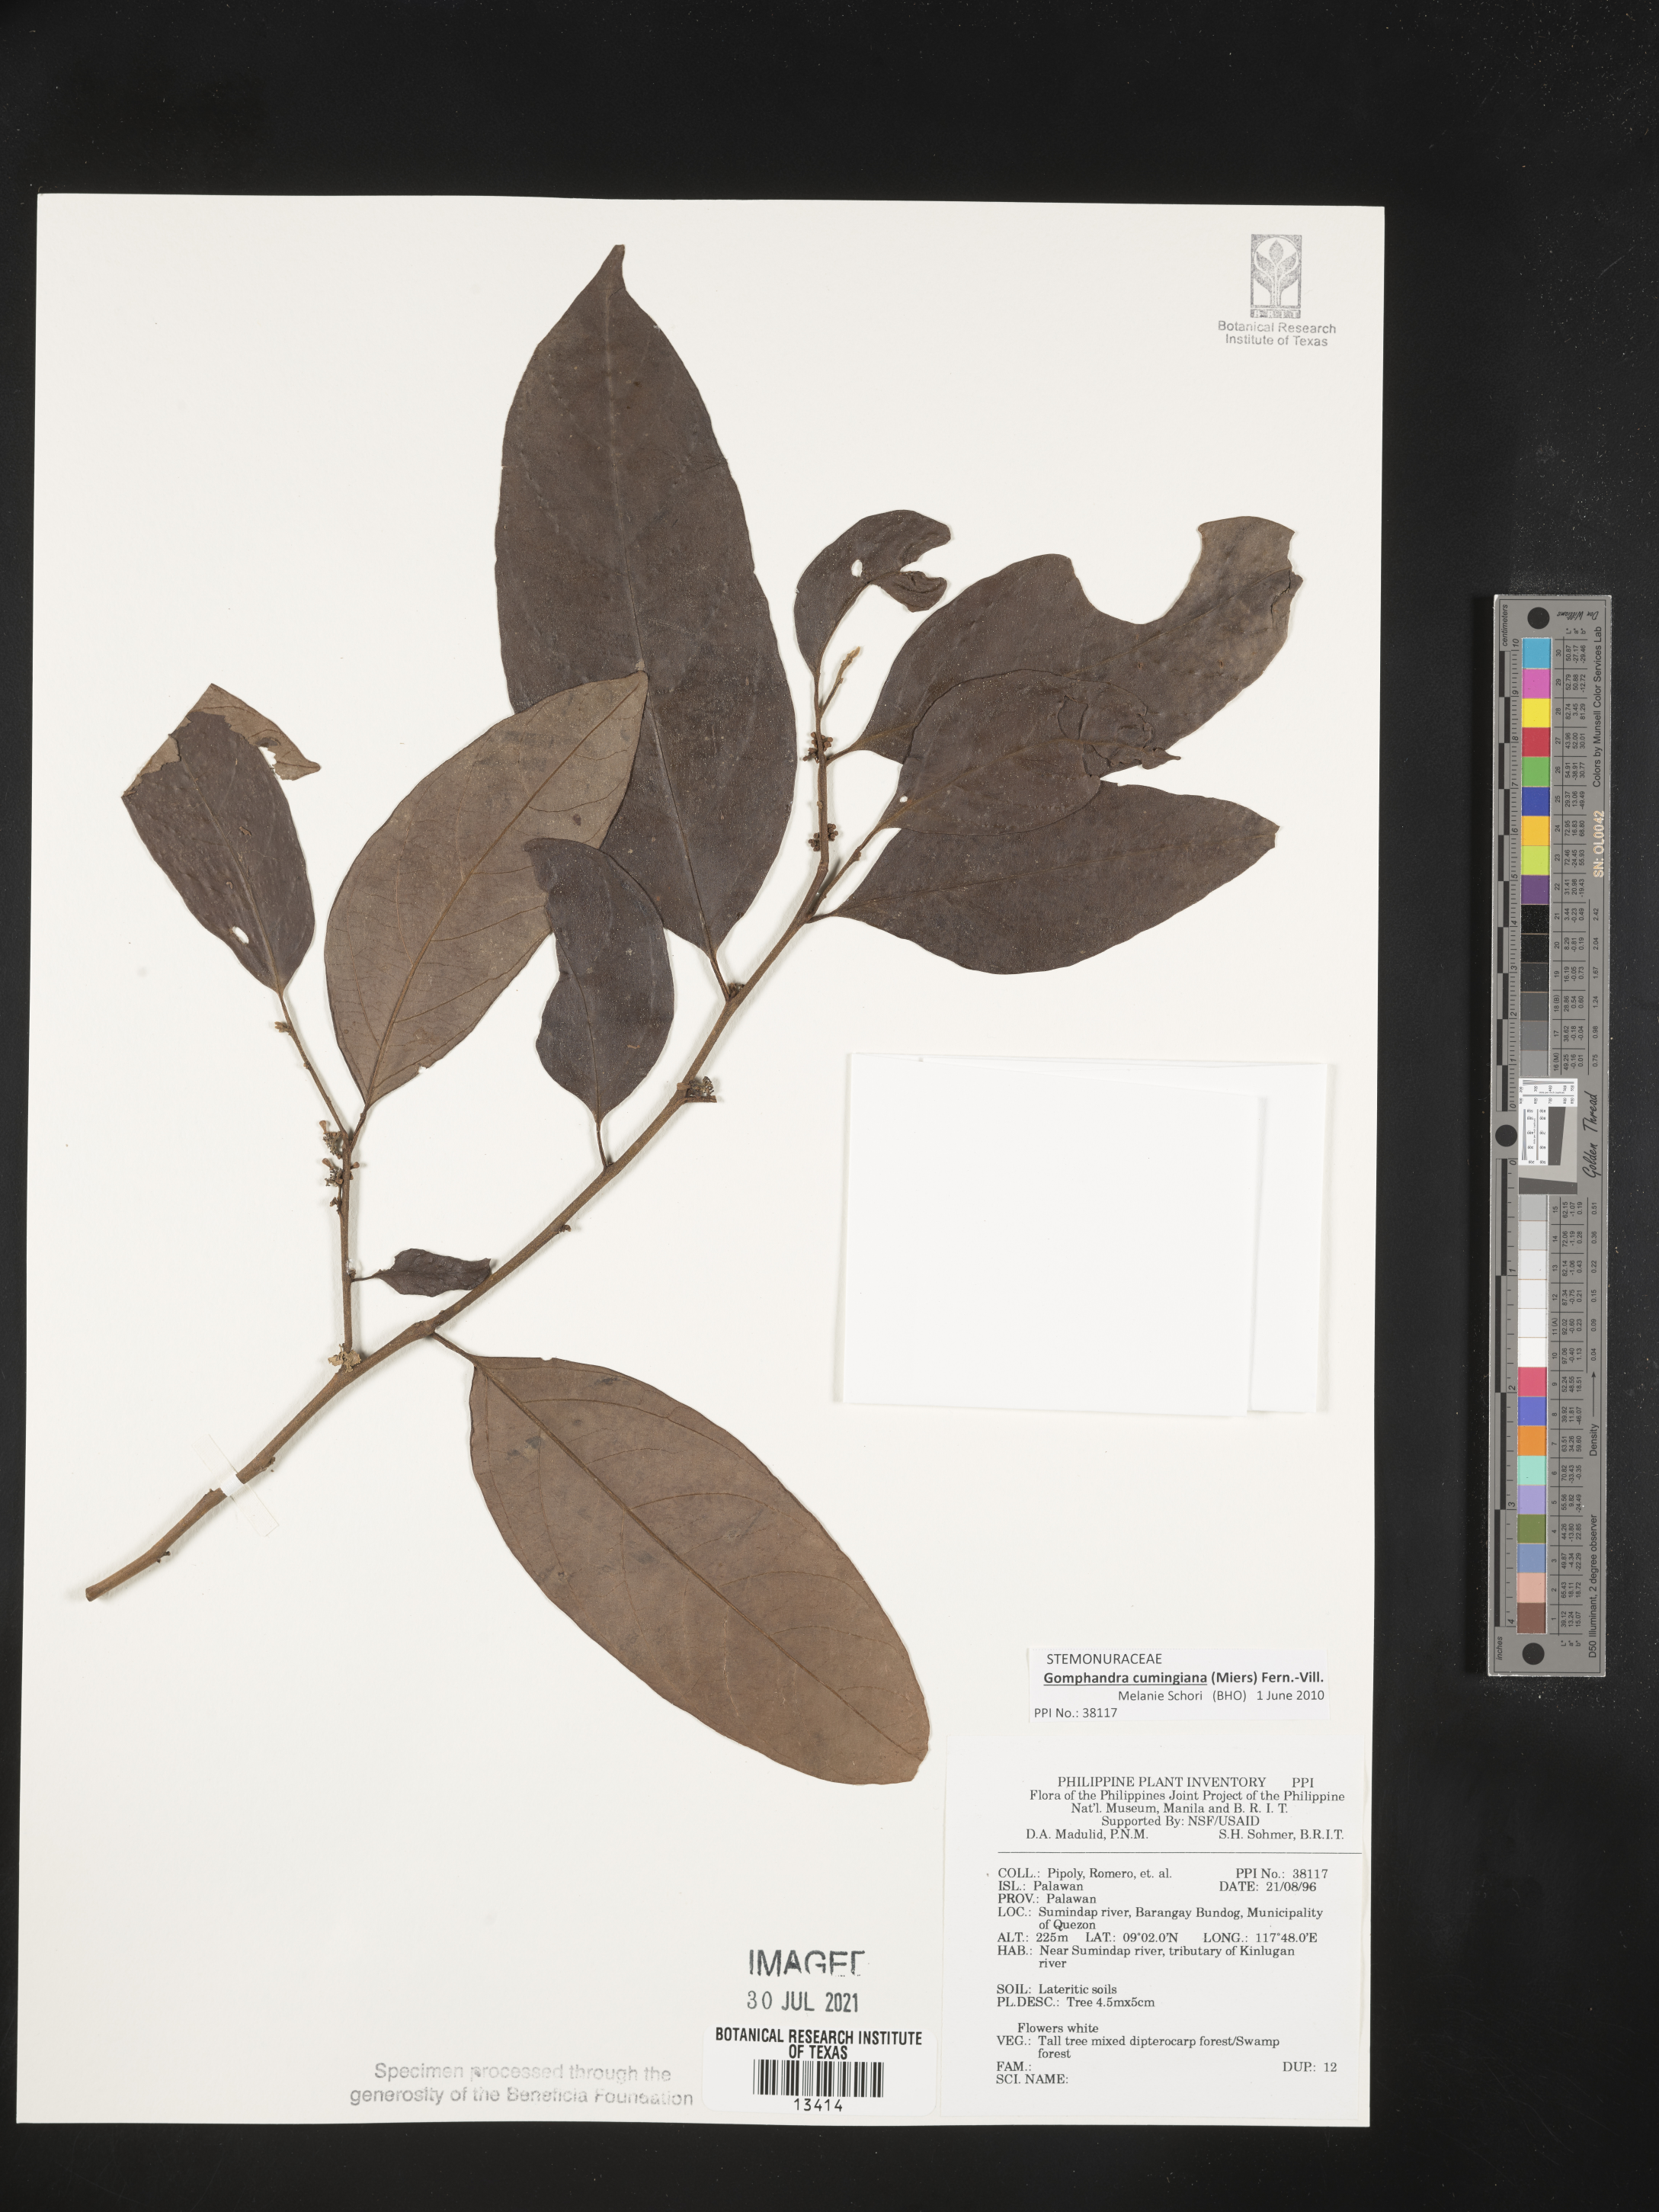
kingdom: Plantae
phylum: Tracheophyta
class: Magnoliopsida
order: Cardiopteridales
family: Stemonuraceae
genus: Gomphandra
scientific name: Gomphandra cumingiana
